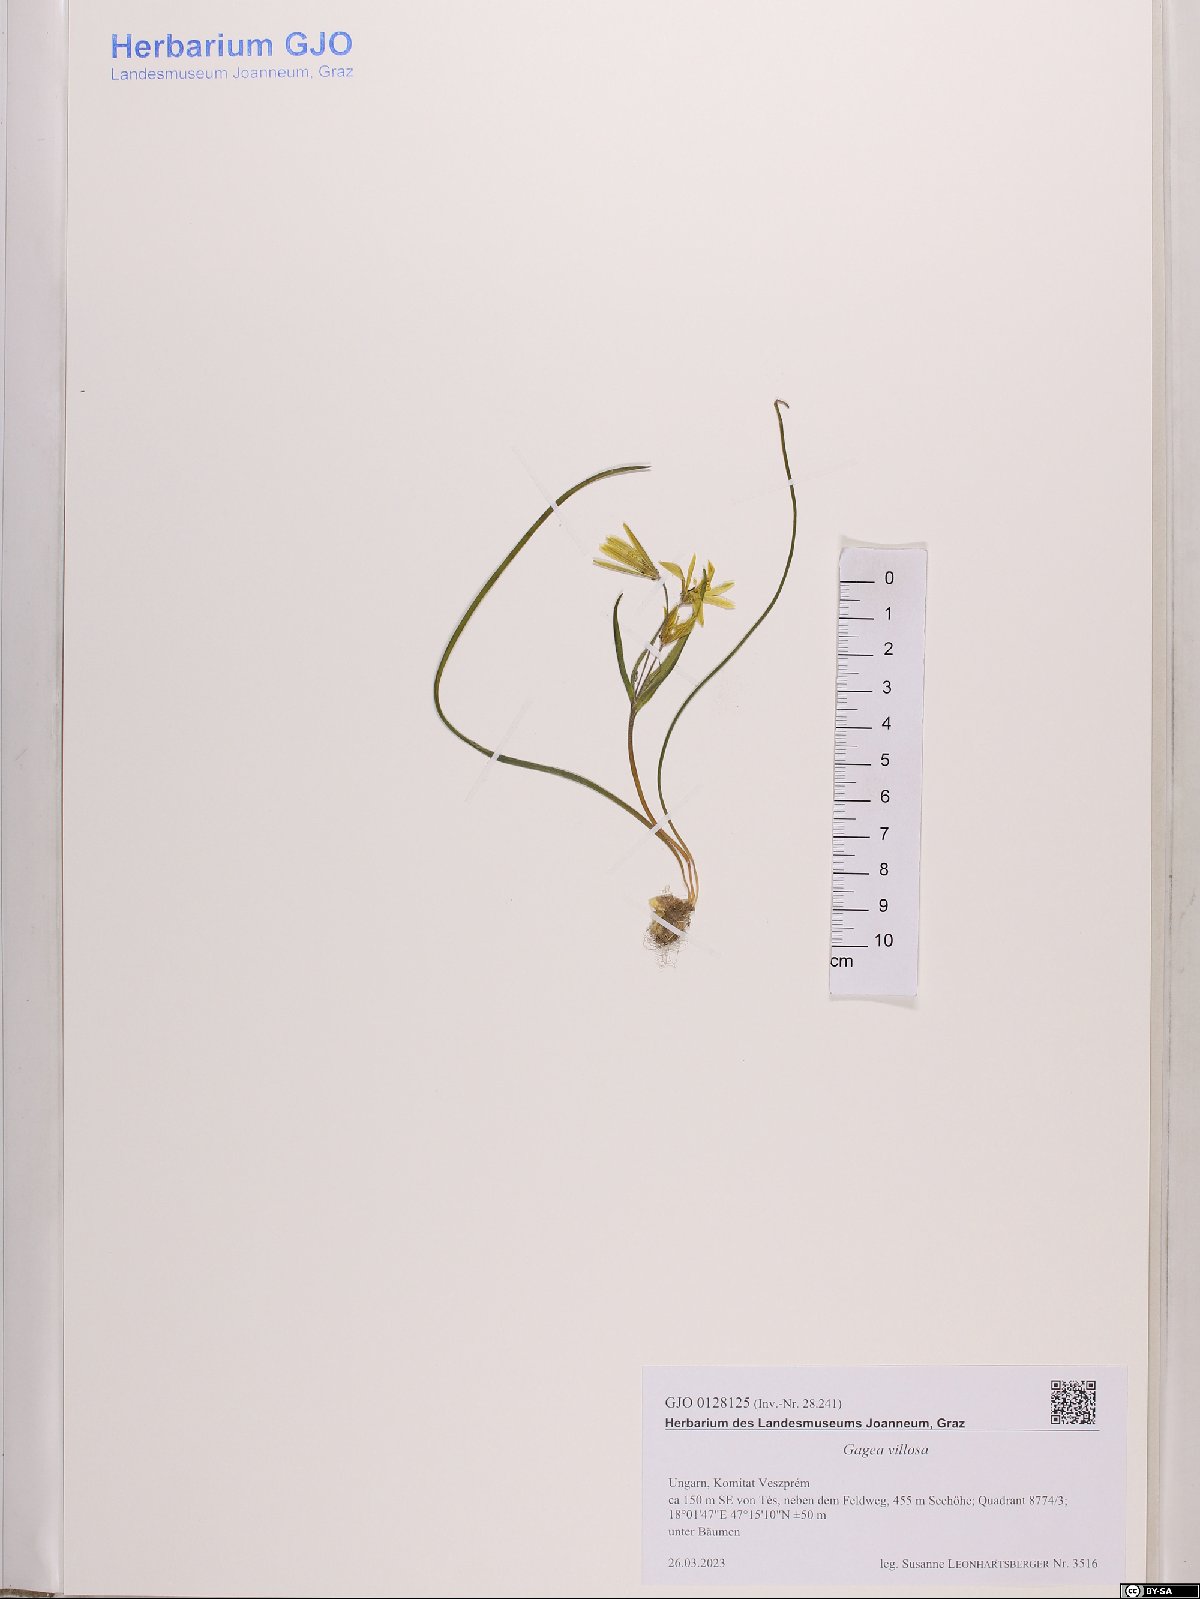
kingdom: Plantae
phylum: Tracheophyta
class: Liliopsida
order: Liliales
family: Liliaceae
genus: Gagea
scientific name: Gagea villosa
